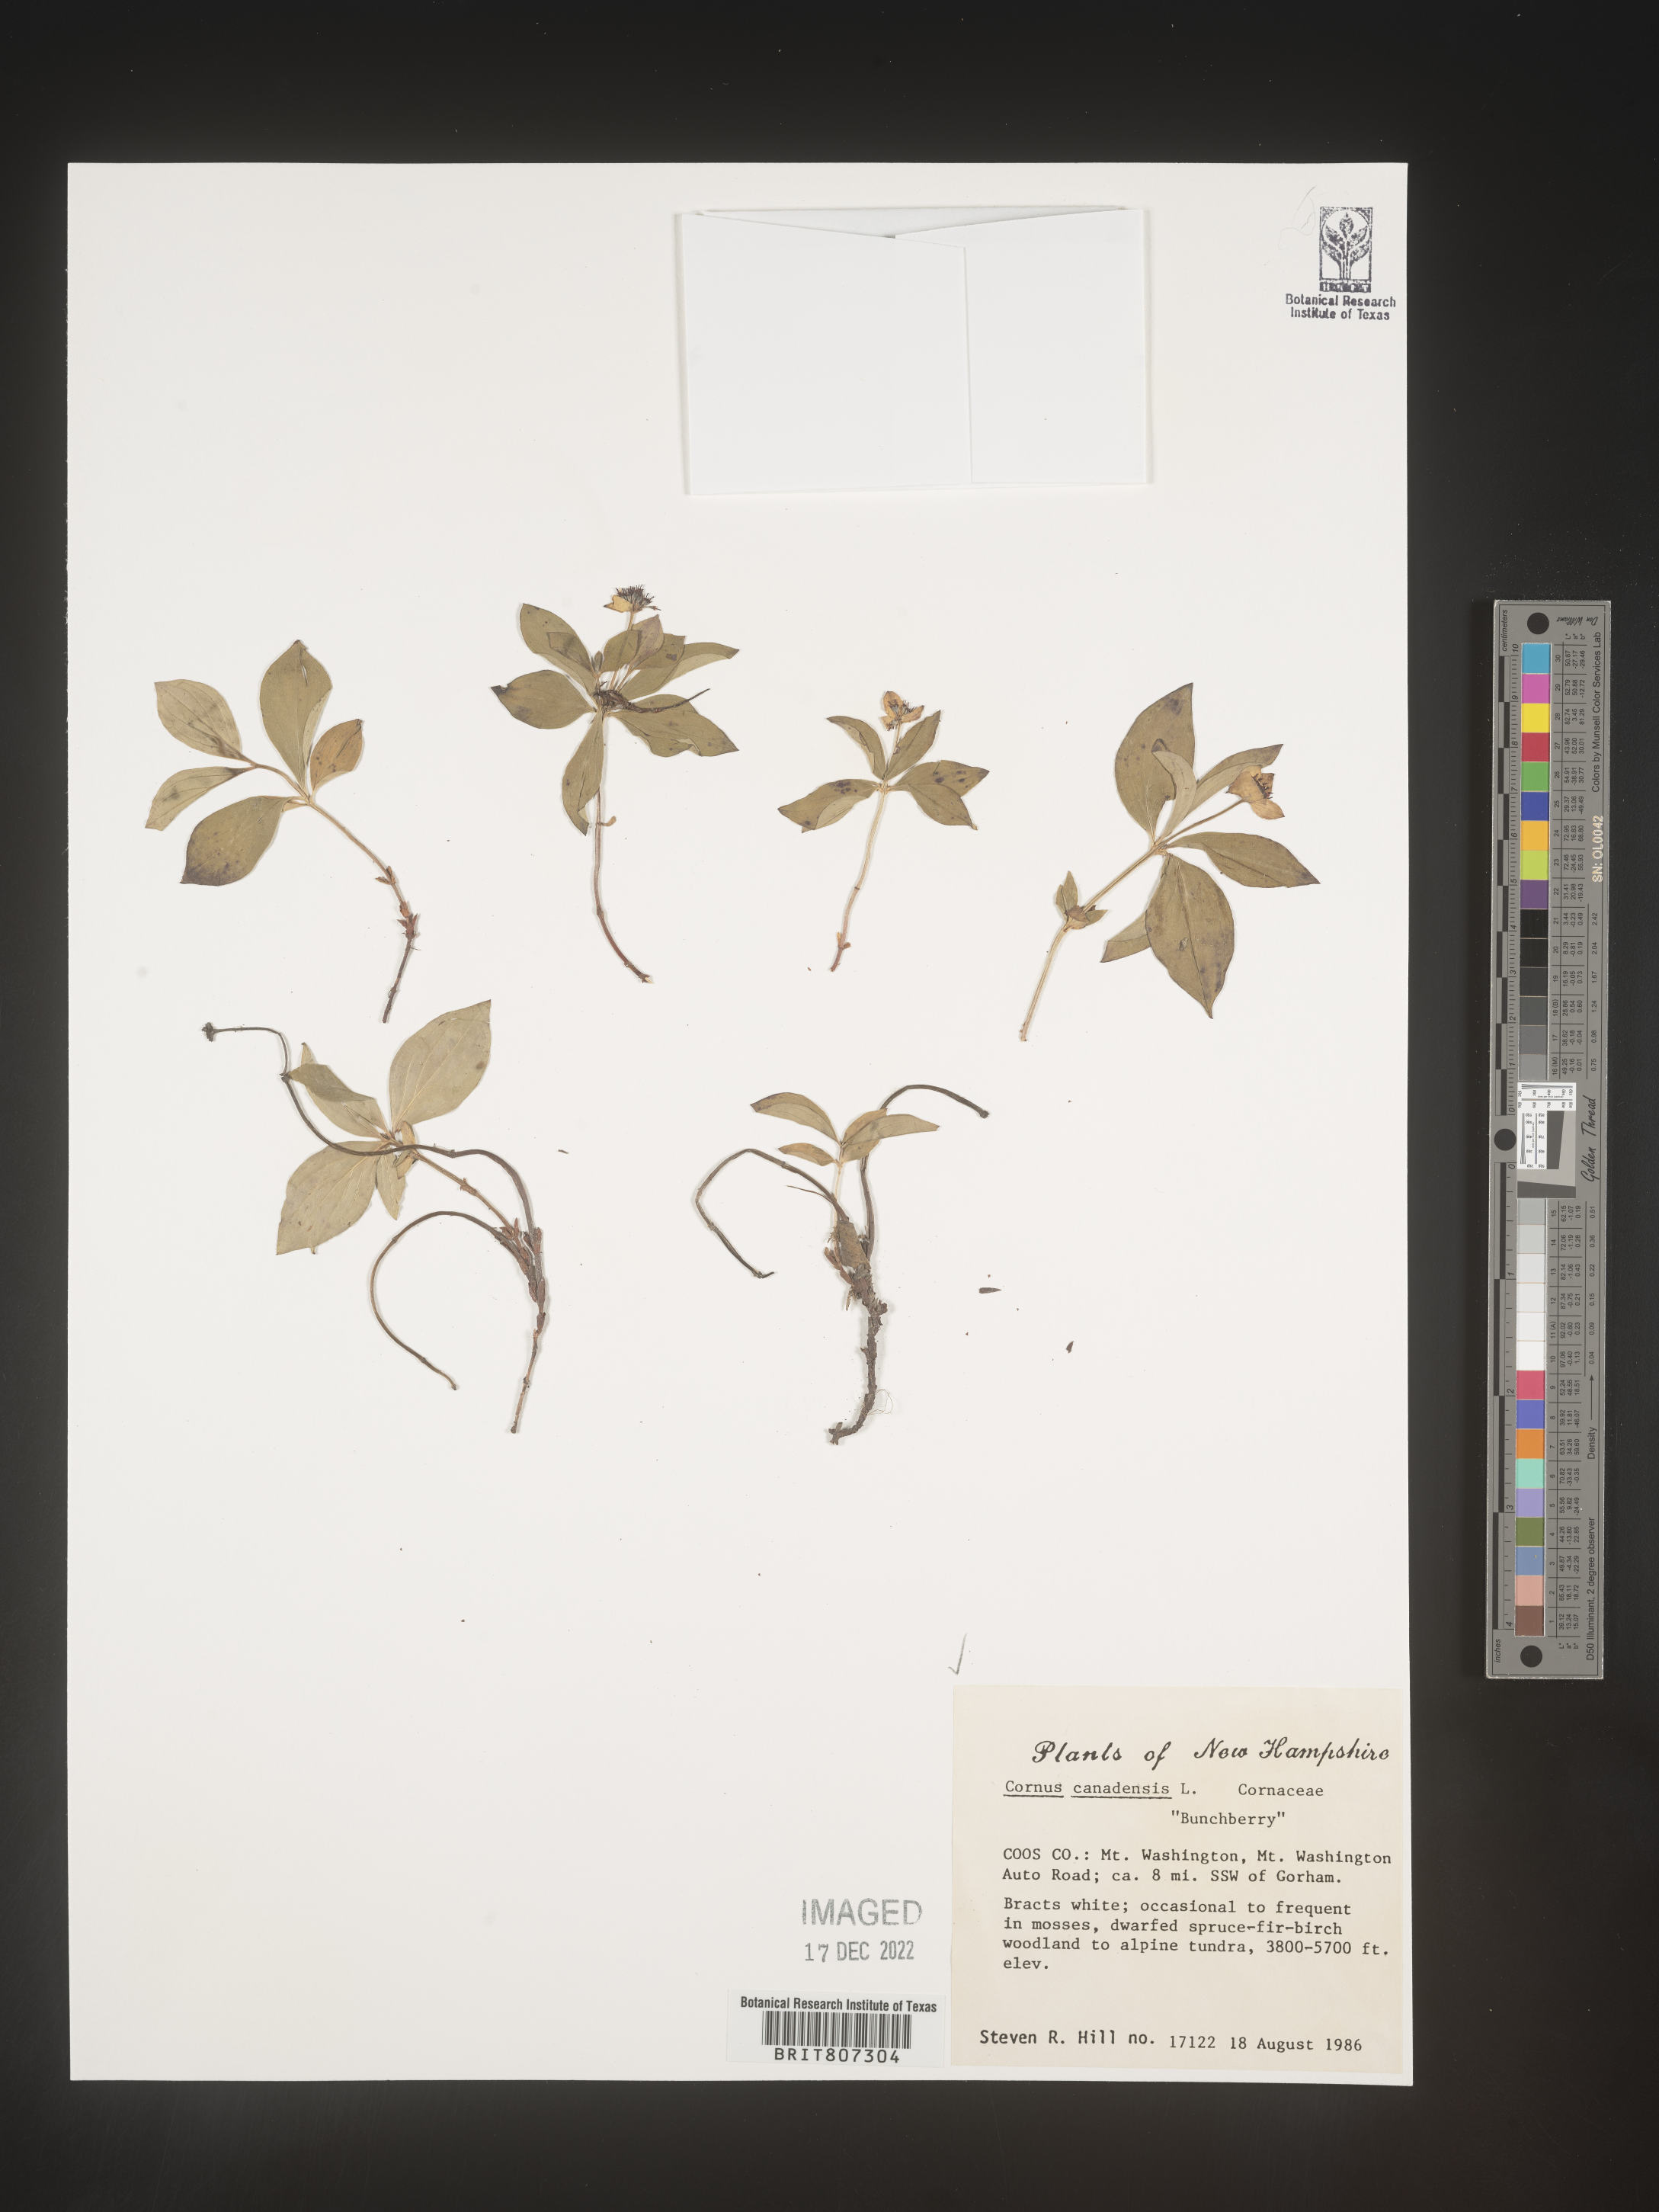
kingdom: Plantae
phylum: Tracheophyta
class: Magnoliopsida
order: Cornales
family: Cornaceae
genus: Cornus
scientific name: Cornus canadensis
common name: Creeping dogwood
